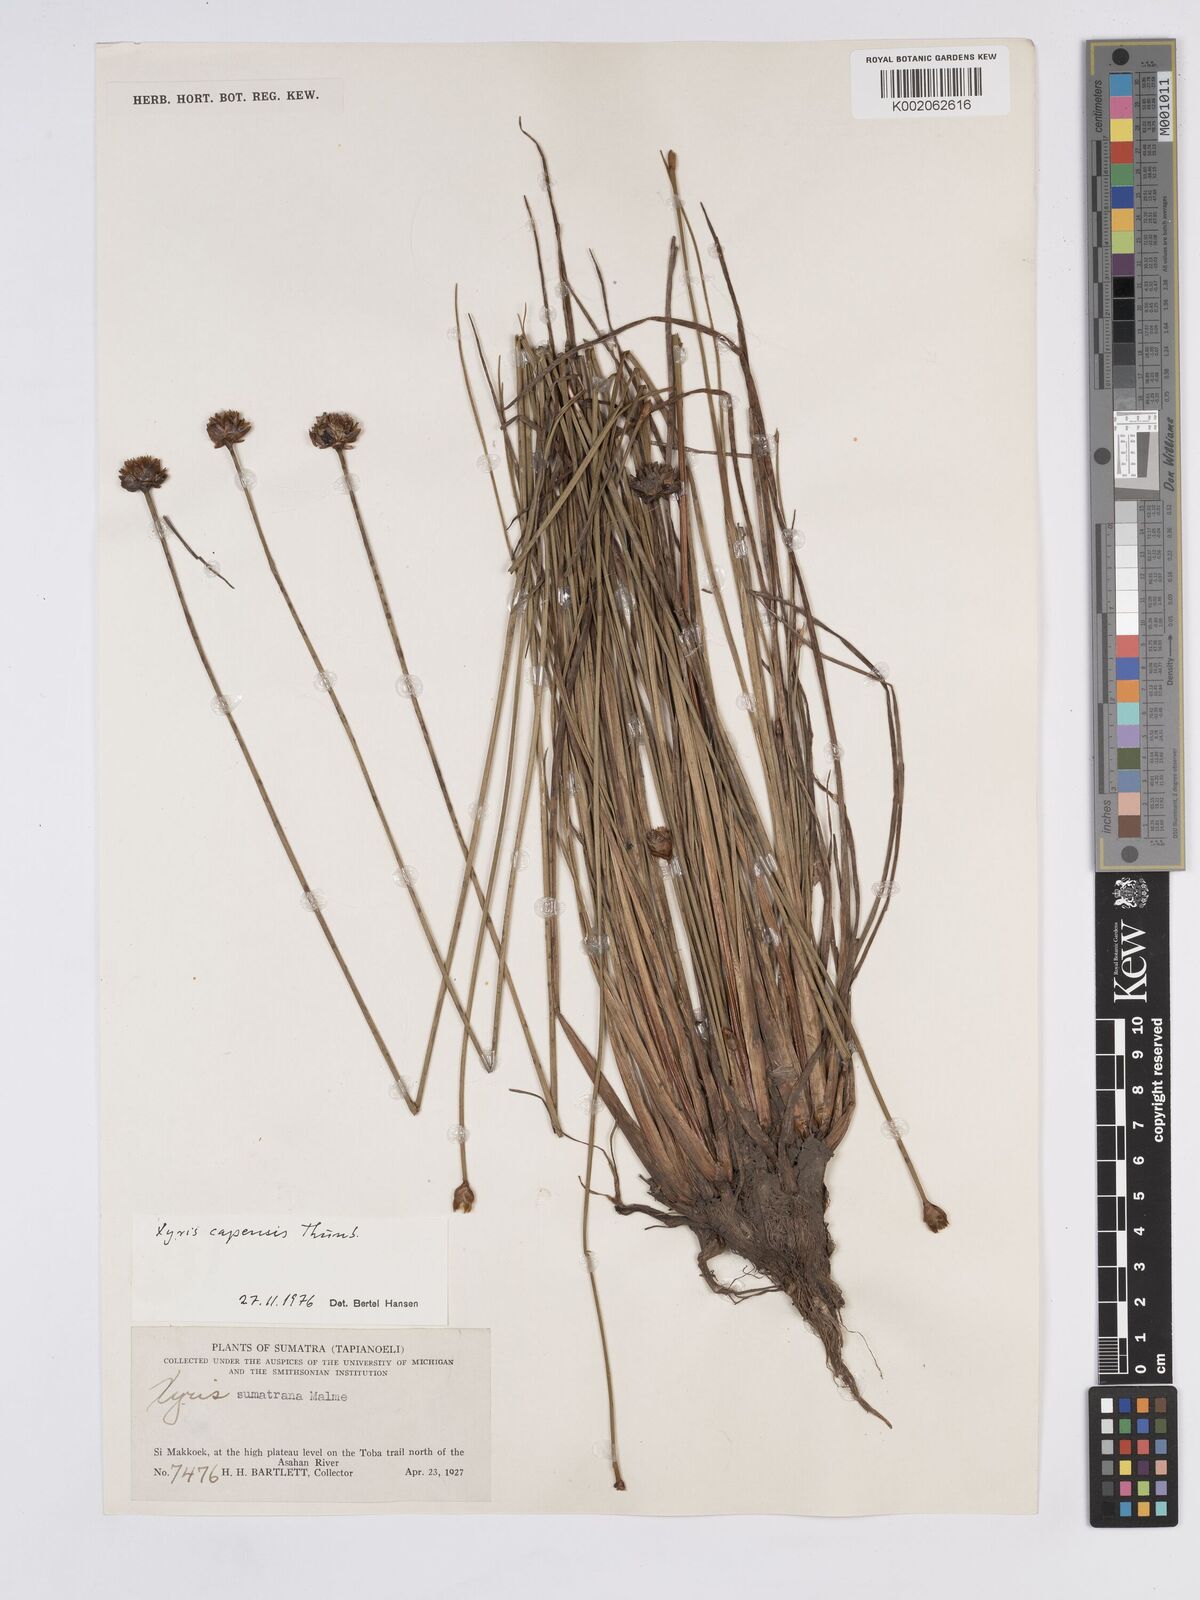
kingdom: Plantae
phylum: Tracheophyta
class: Liliopsida
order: Poales
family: Xyridaceae
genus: Xyris
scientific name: Xyris capensis
